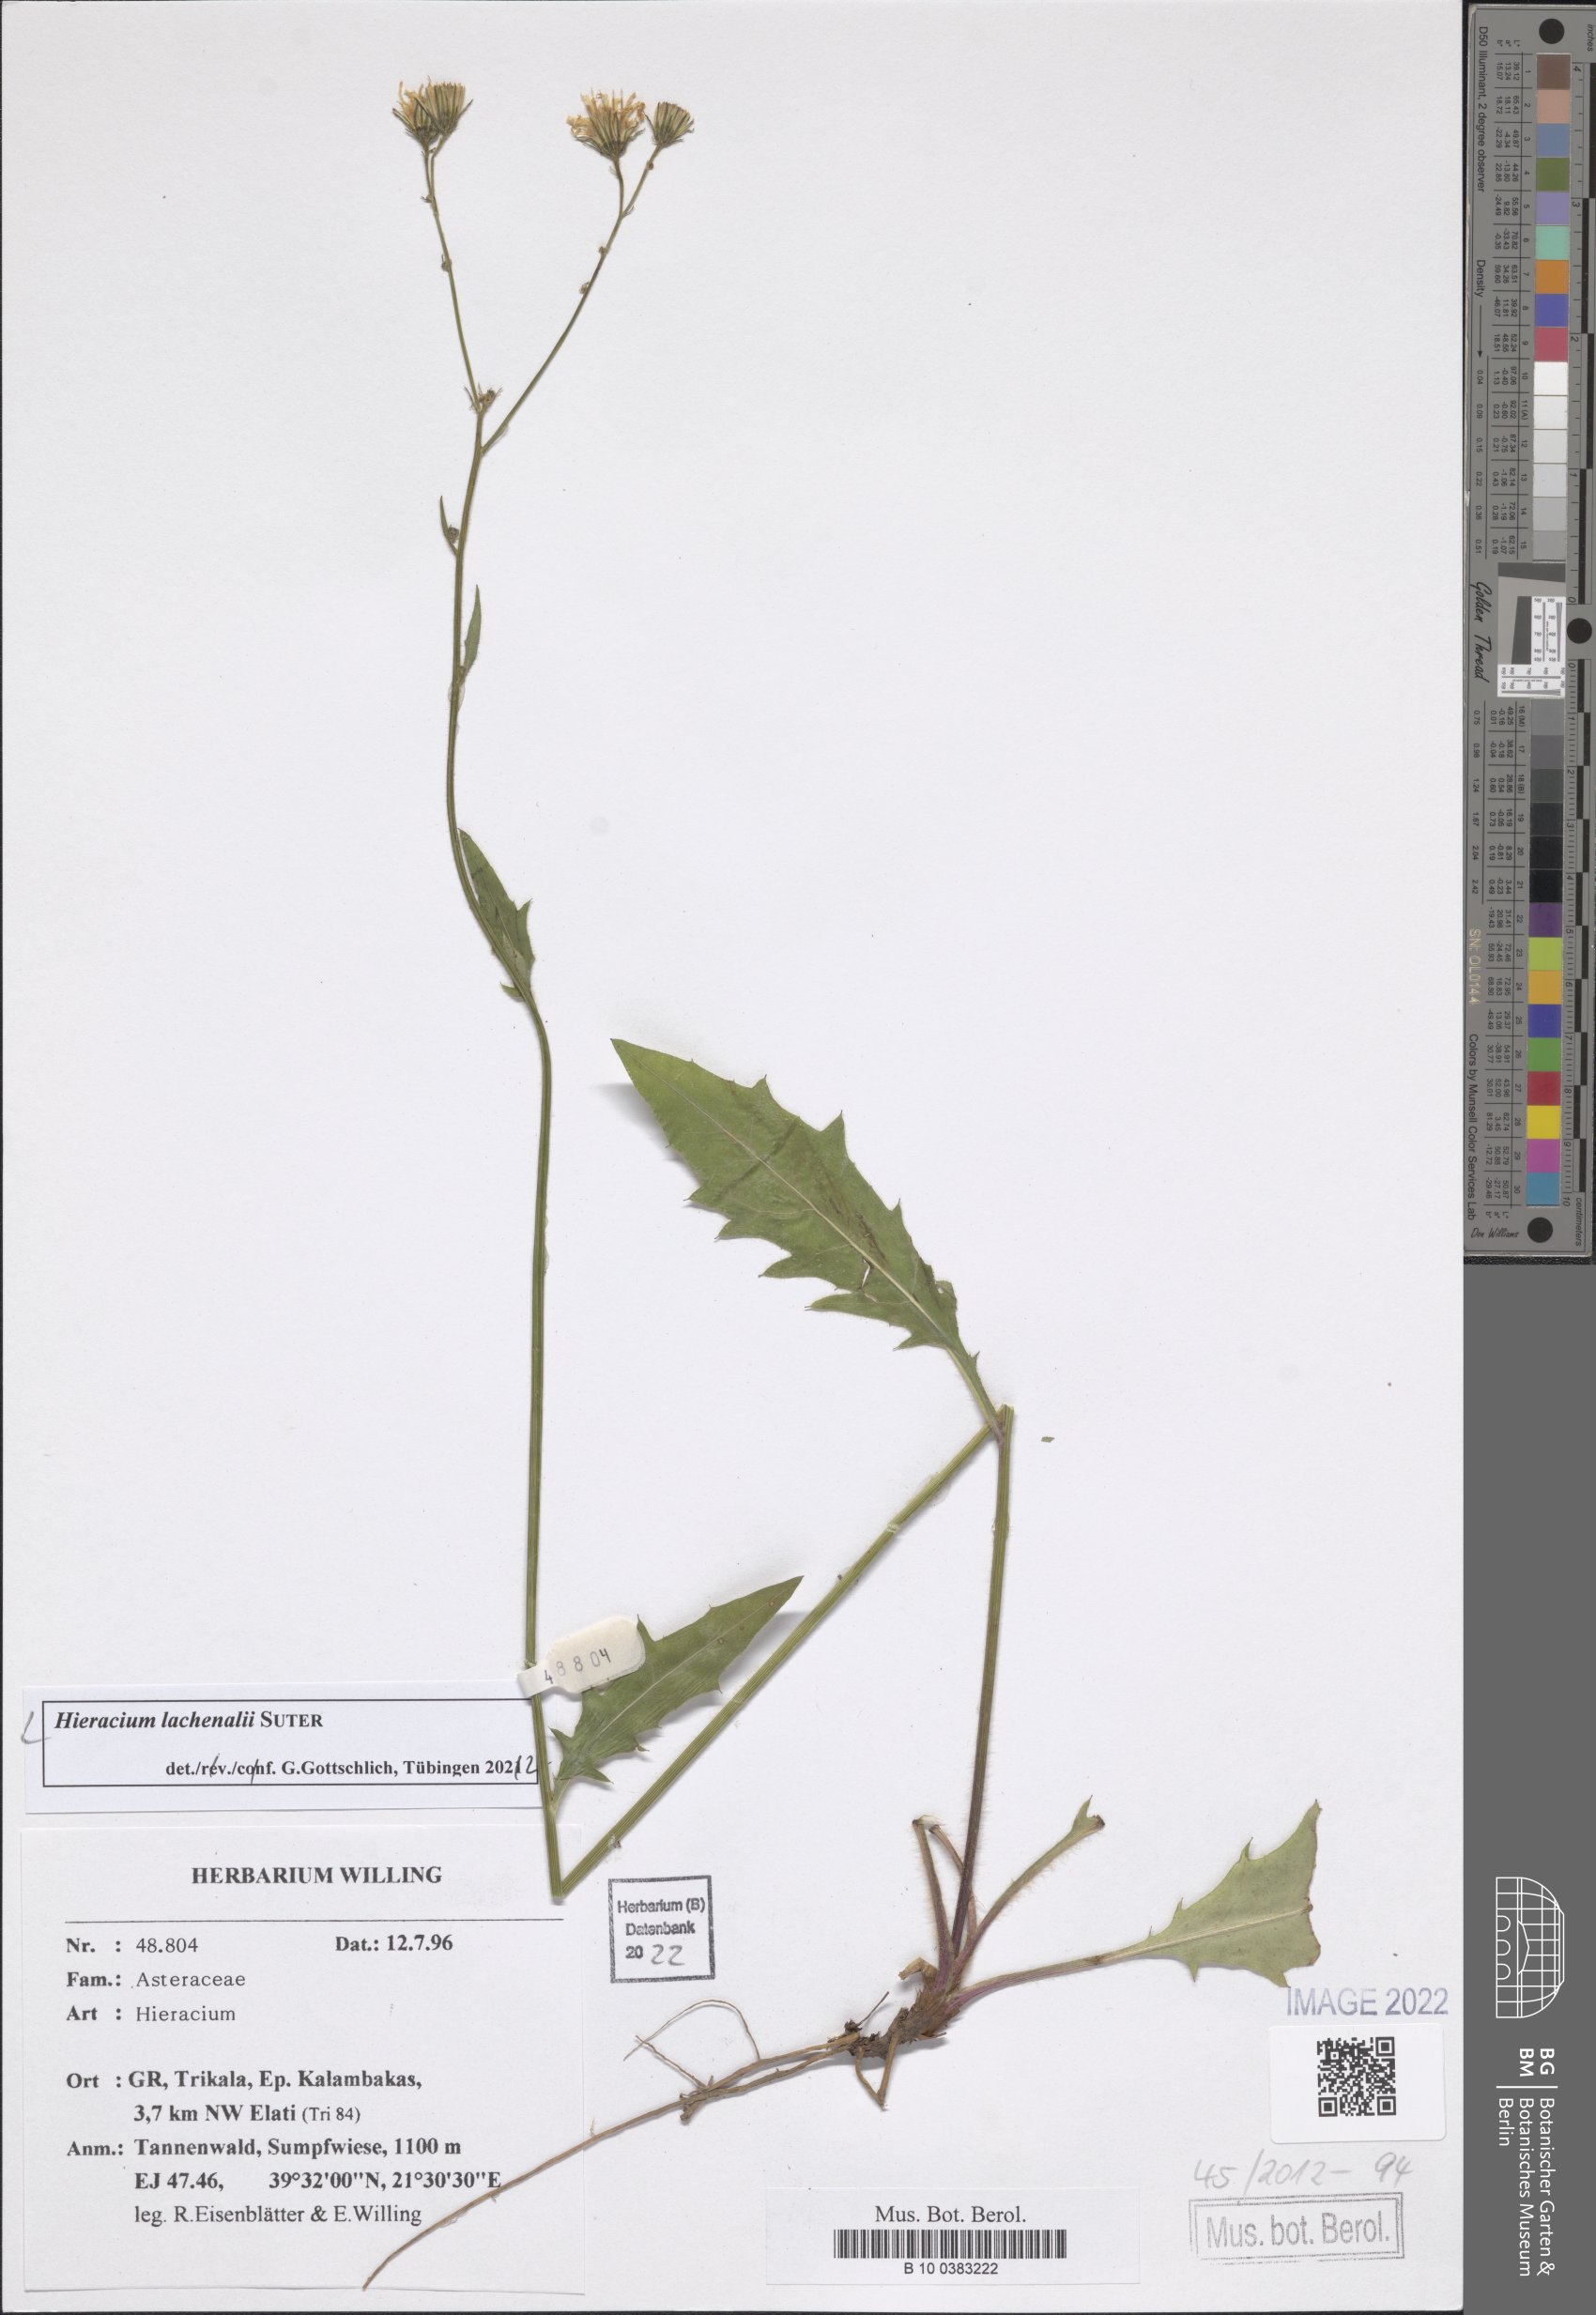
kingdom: Plantae
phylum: Tracheophyta
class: Magnoliopsida
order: Asterales
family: Asteraceae
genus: Hieracium
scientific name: Hieracium lachenalii
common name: Common hawkweed
